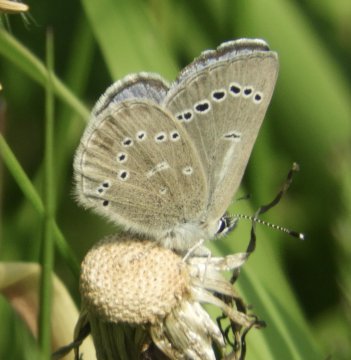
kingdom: Animalia
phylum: Arthropoda
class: Insecta
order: Lepidoptera
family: Lycaenidae
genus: Glaucopsyche
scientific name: Glaucopsyche lygdamus
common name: Silvery Blue
